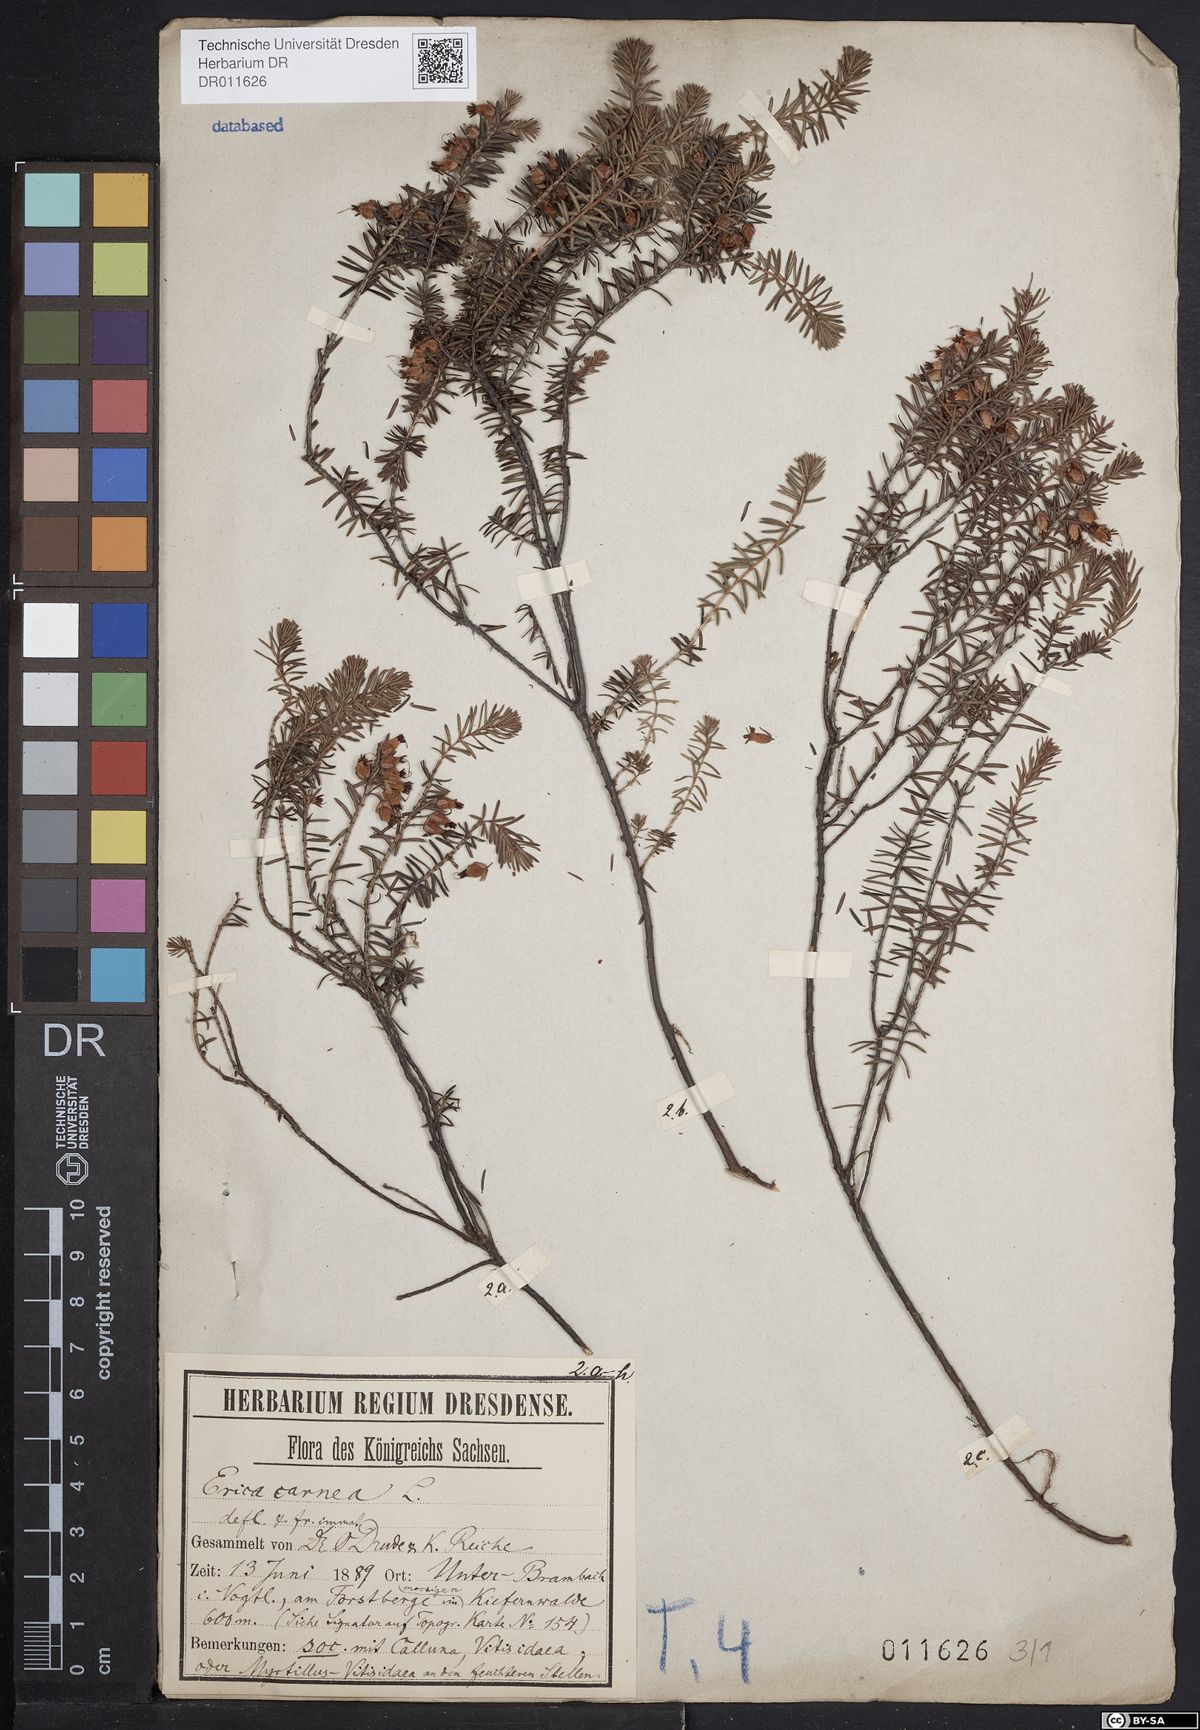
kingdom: Plantae
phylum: Tracheophyta
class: Magnoliopsida
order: Ericales
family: Ericaceae
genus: Erica
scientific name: Erica carnea
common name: Winter heath
